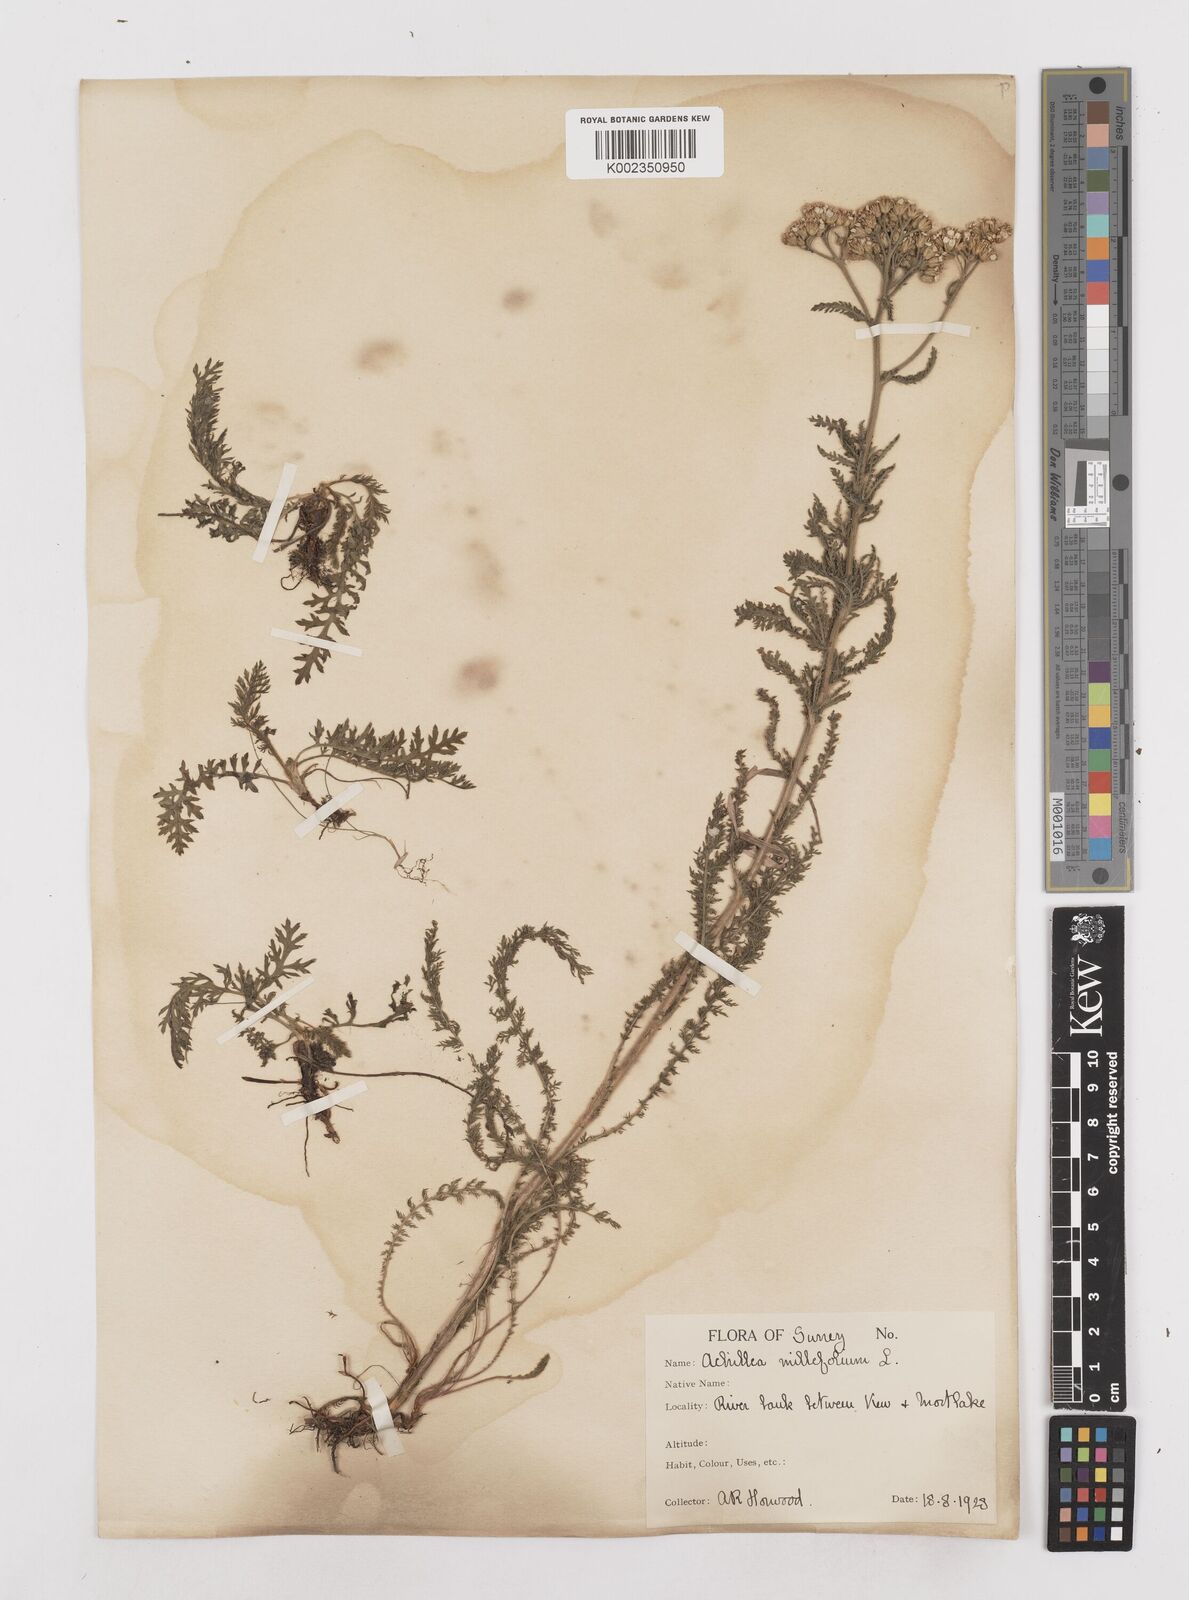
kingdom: Plantae
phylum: Tracheophyta
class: Magnoliopsida
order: Asterales
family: Asteraceae
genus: Achillea
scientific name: Achillea millefolium
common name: Yarrow
